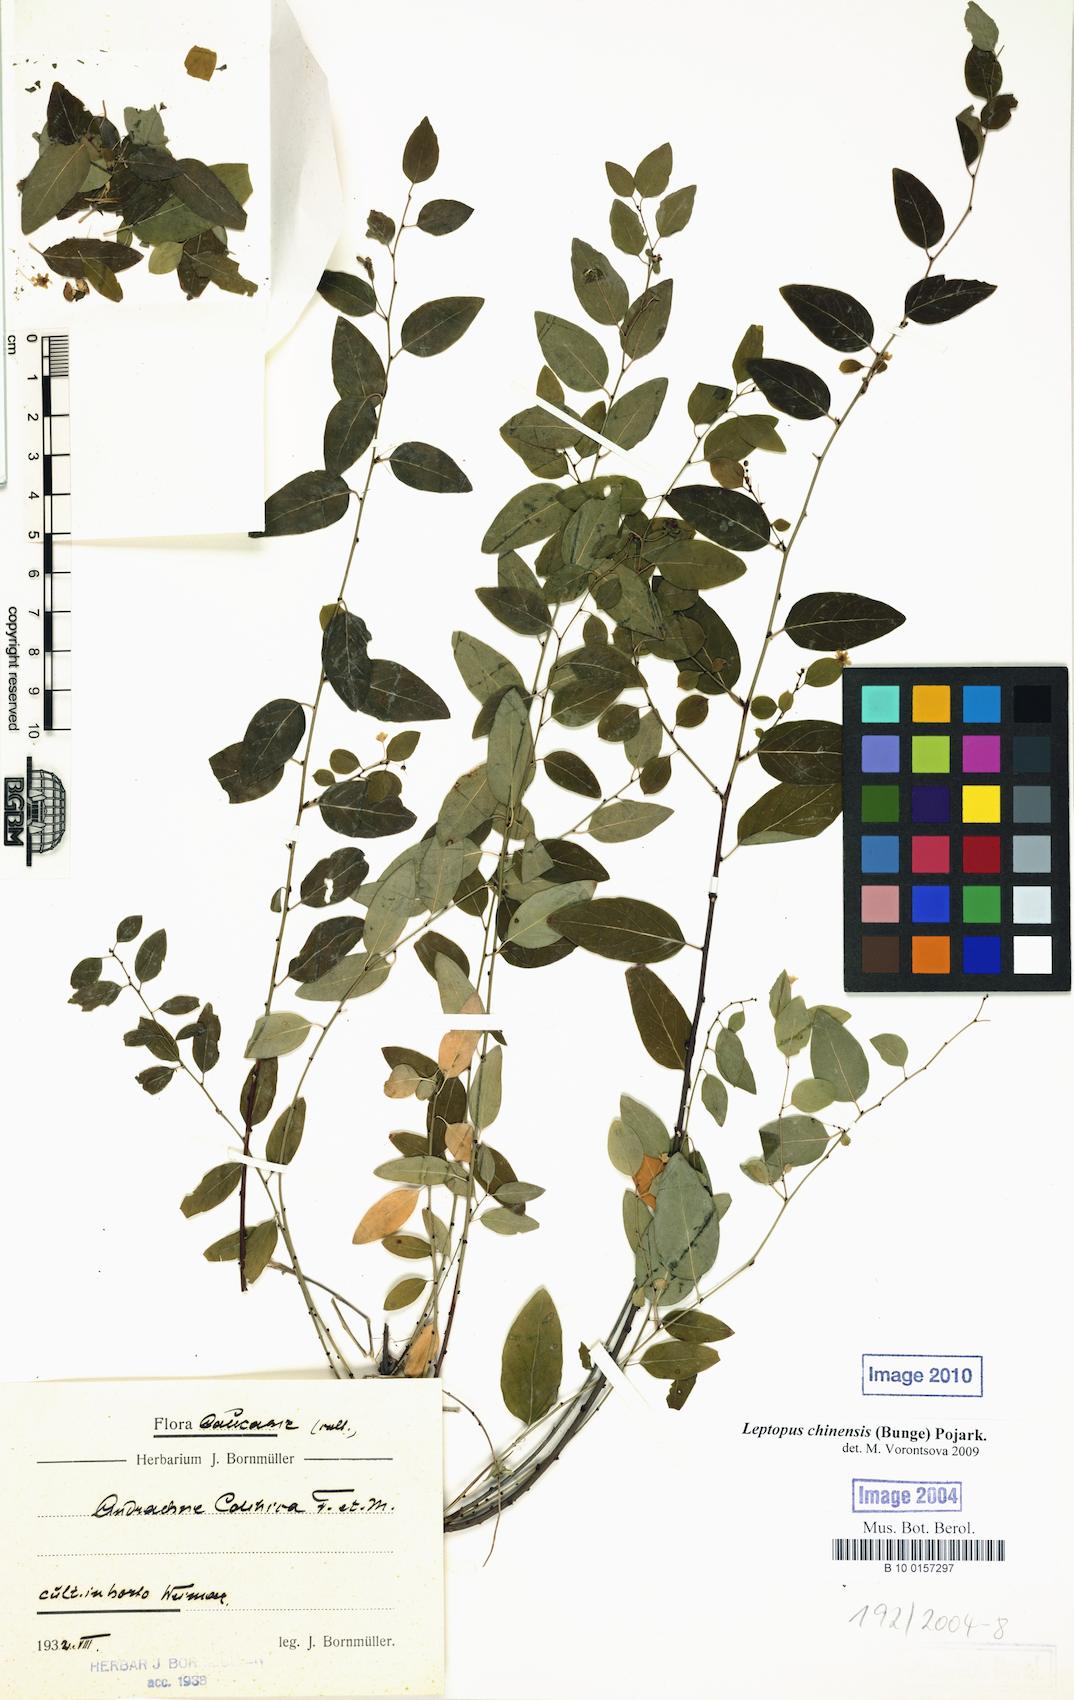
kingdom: Plantae
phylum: Tracheophyta
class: Magnoliopsida
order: Malpighiales
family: Phyllanthaceae
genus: Leptopus
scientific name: Leptopus chinensis
